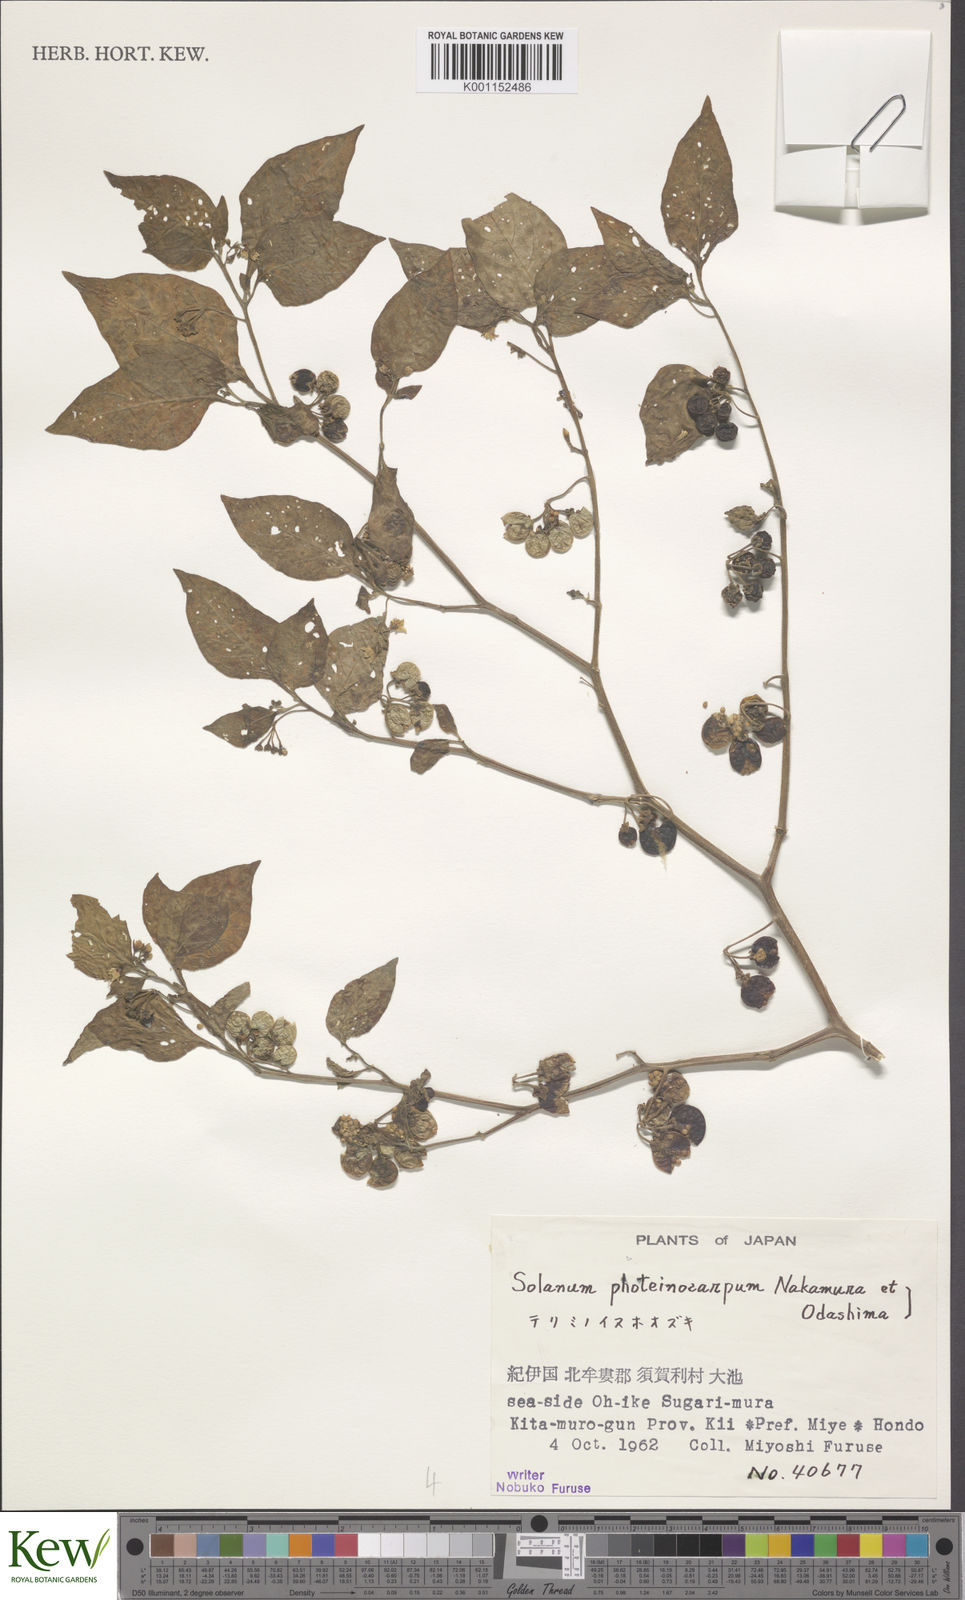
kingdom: Plantae
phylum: Tracheophyta
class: Magnoliopsida
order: Solanales
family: Solanaceae
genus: Solanum
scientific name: Solanum americanum
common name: American black nightshade
